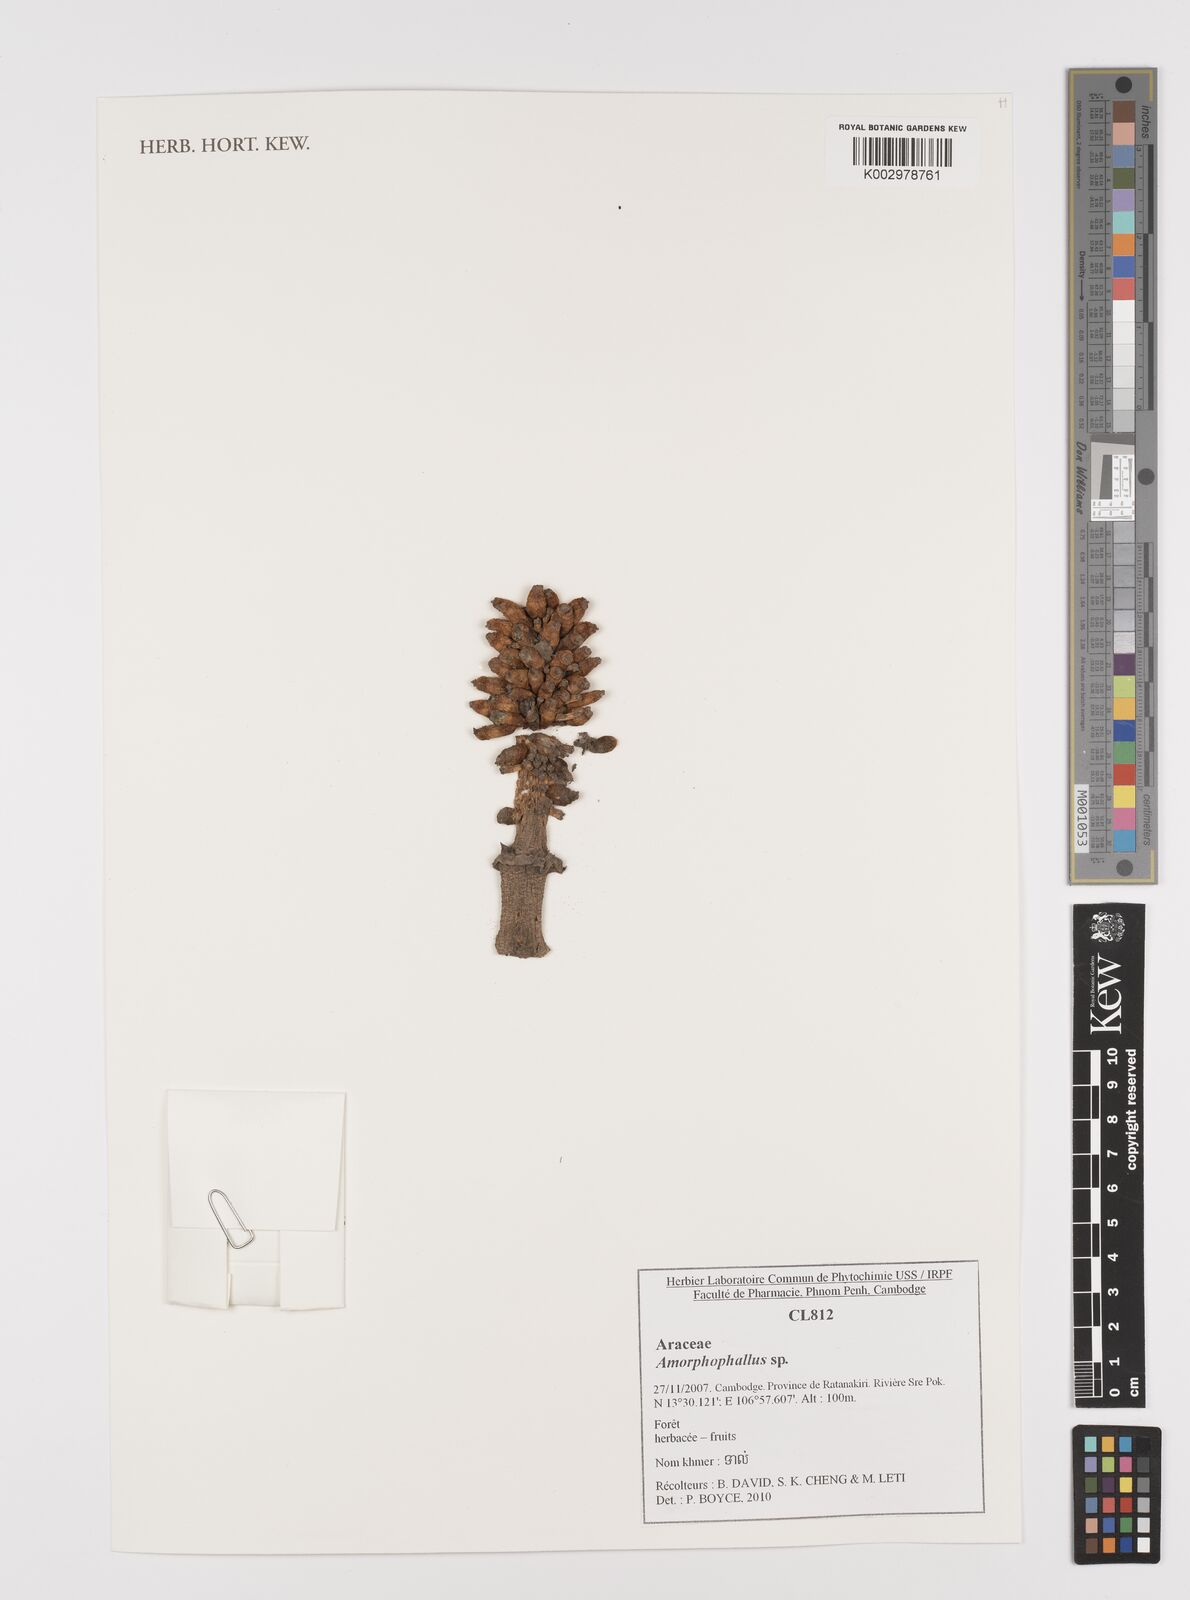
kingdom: Plantae
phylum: Tracheophyta
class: Liliopsida
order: Alismatales
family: Araceae
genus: Amorphophallus
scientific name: Amorphophallus
